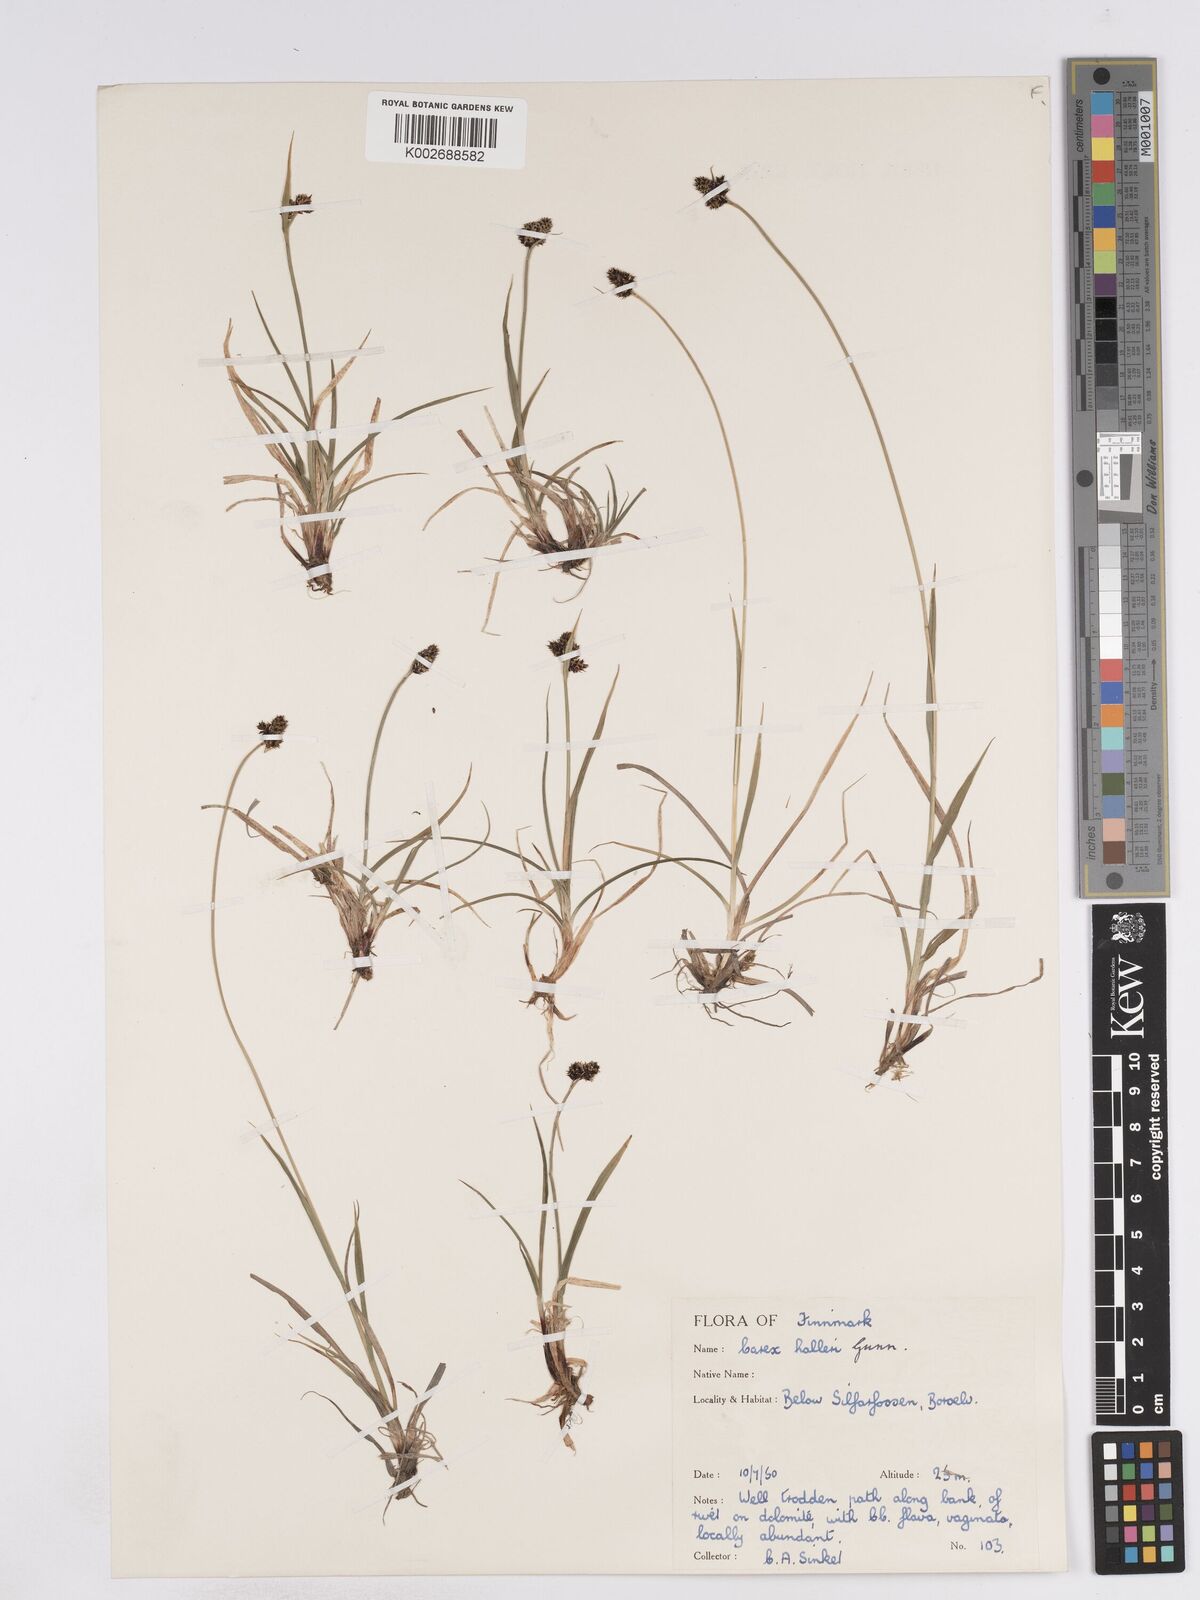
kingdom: Plantae
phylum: Tracheophyta
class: Liliopsida
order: Poales
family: Cyperaceae
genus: Carex
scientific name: Carex norvegica
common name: Close-headed alpine-sedge
